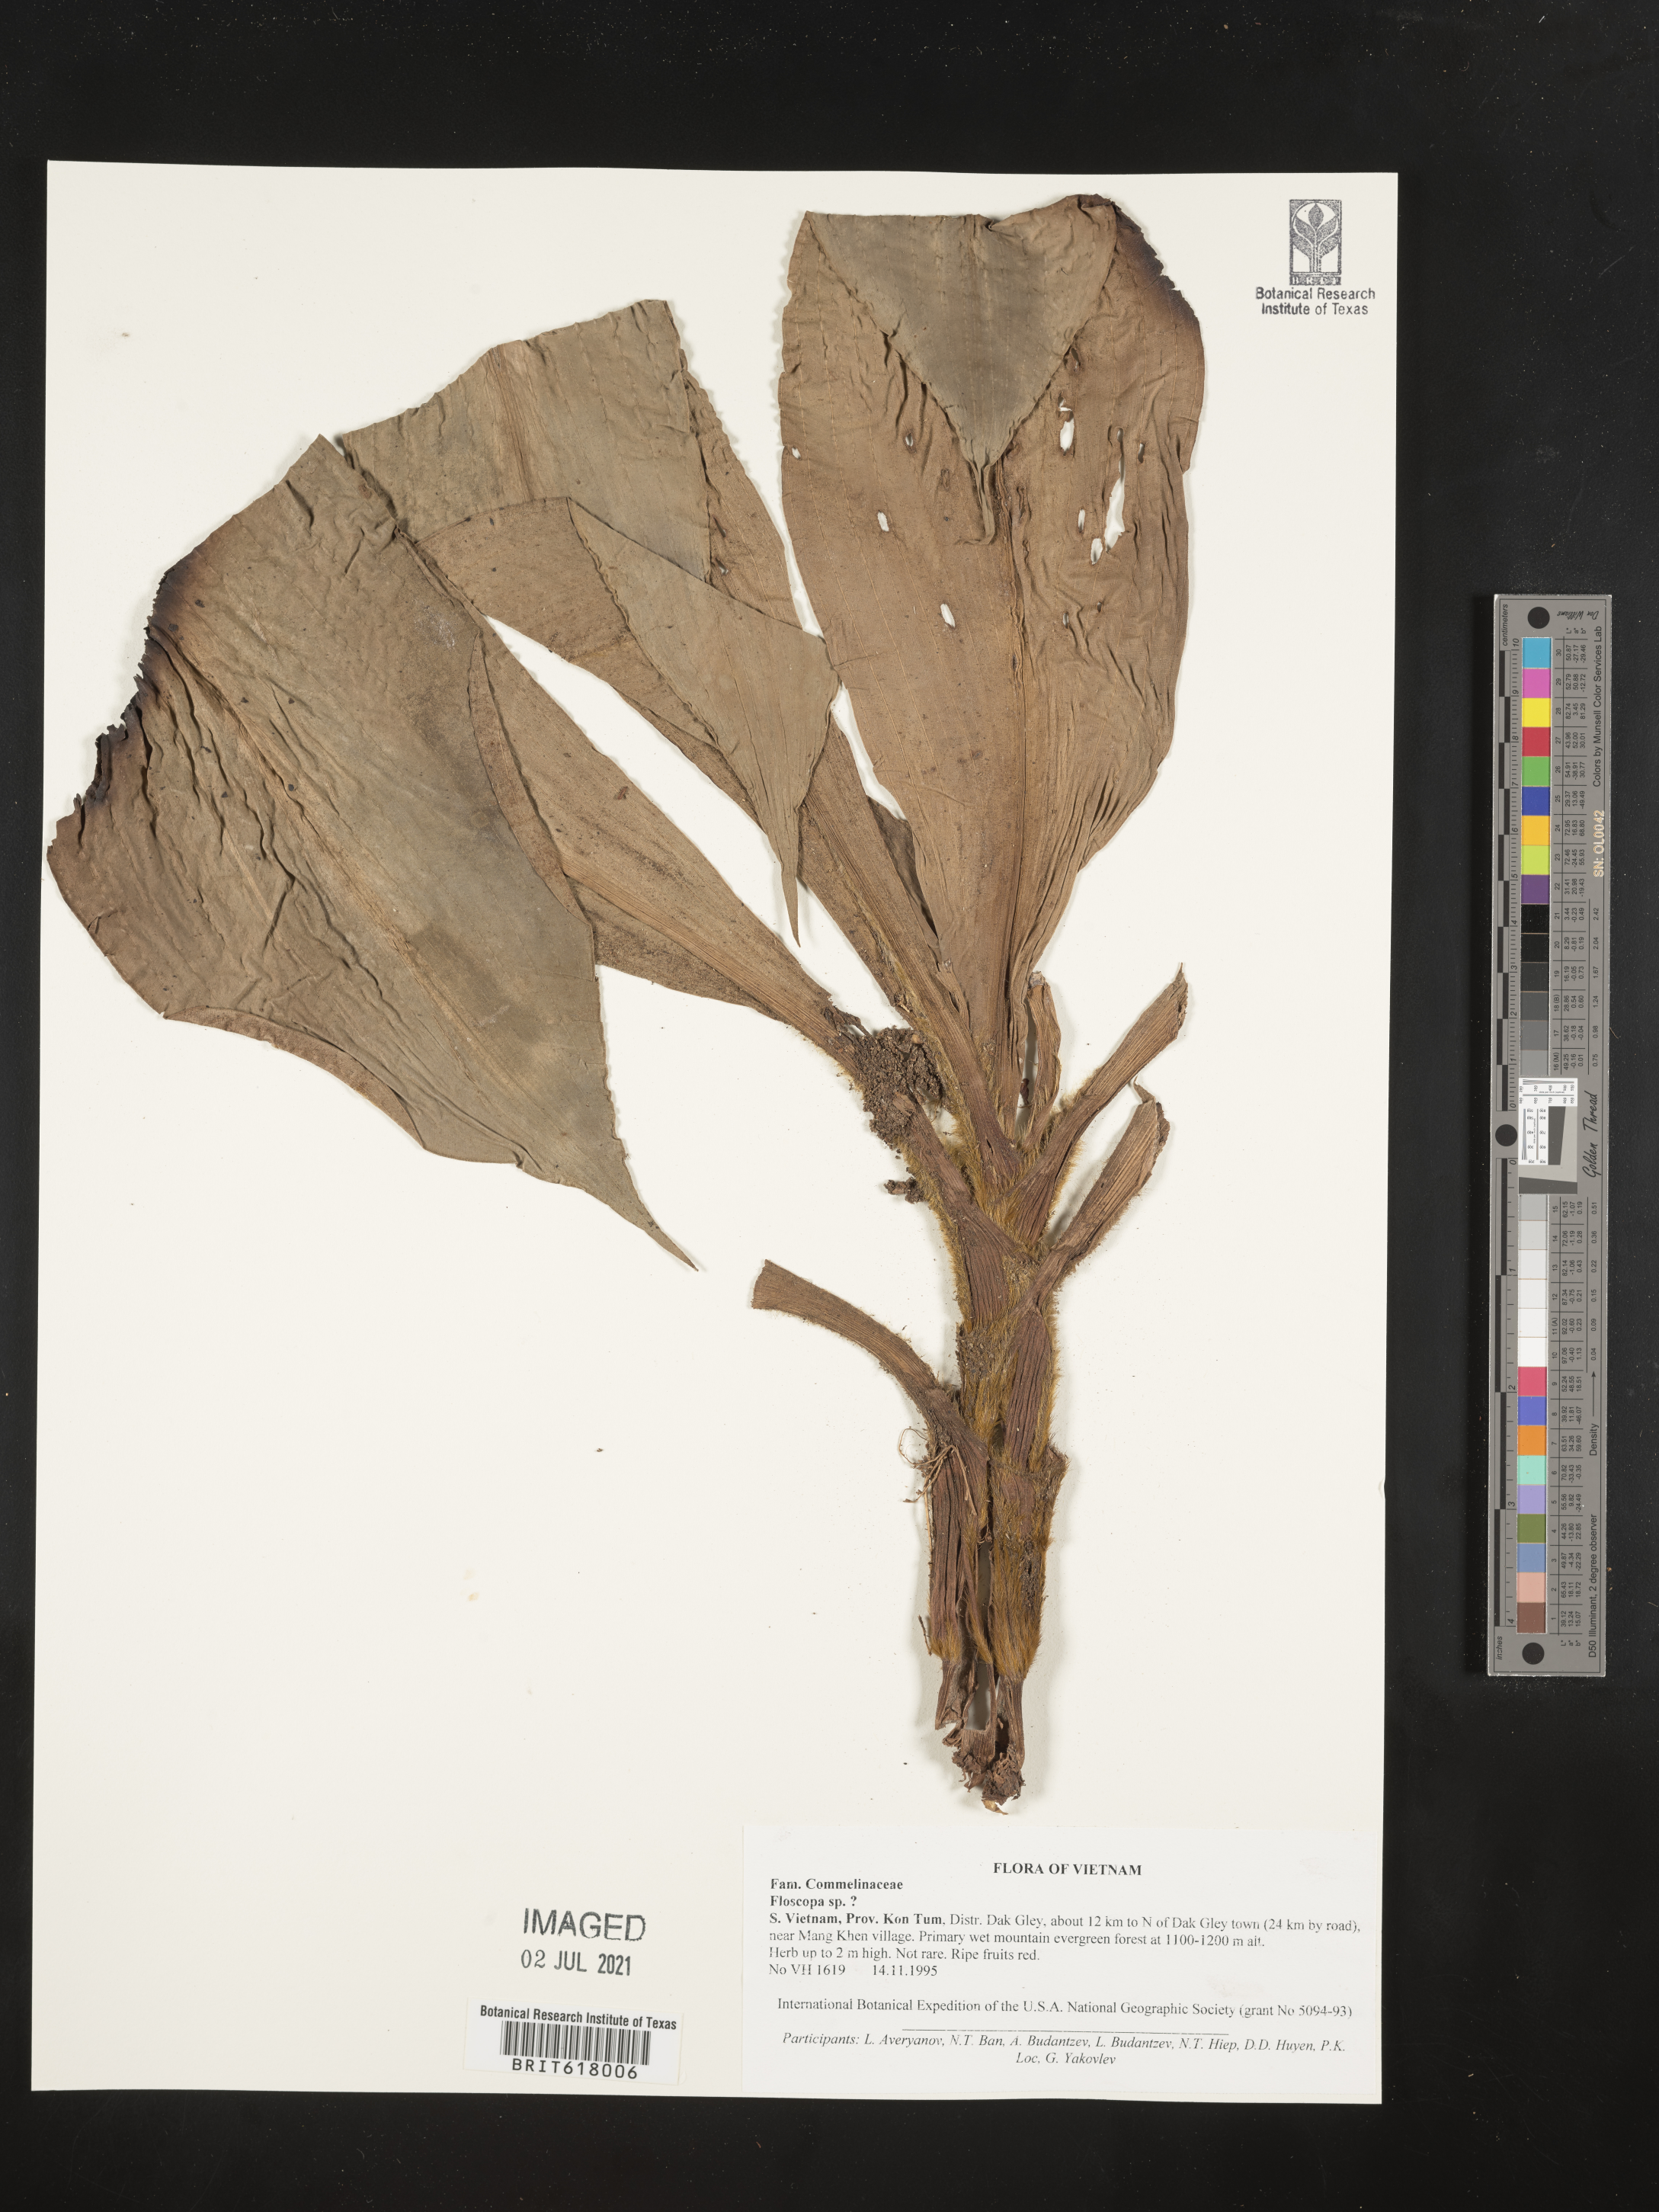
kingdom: Plantae
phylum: Tracheophyta
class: Liliopsida
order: Commelinales
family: Commelinaceae
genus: Floscopa
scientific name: Floscopa
